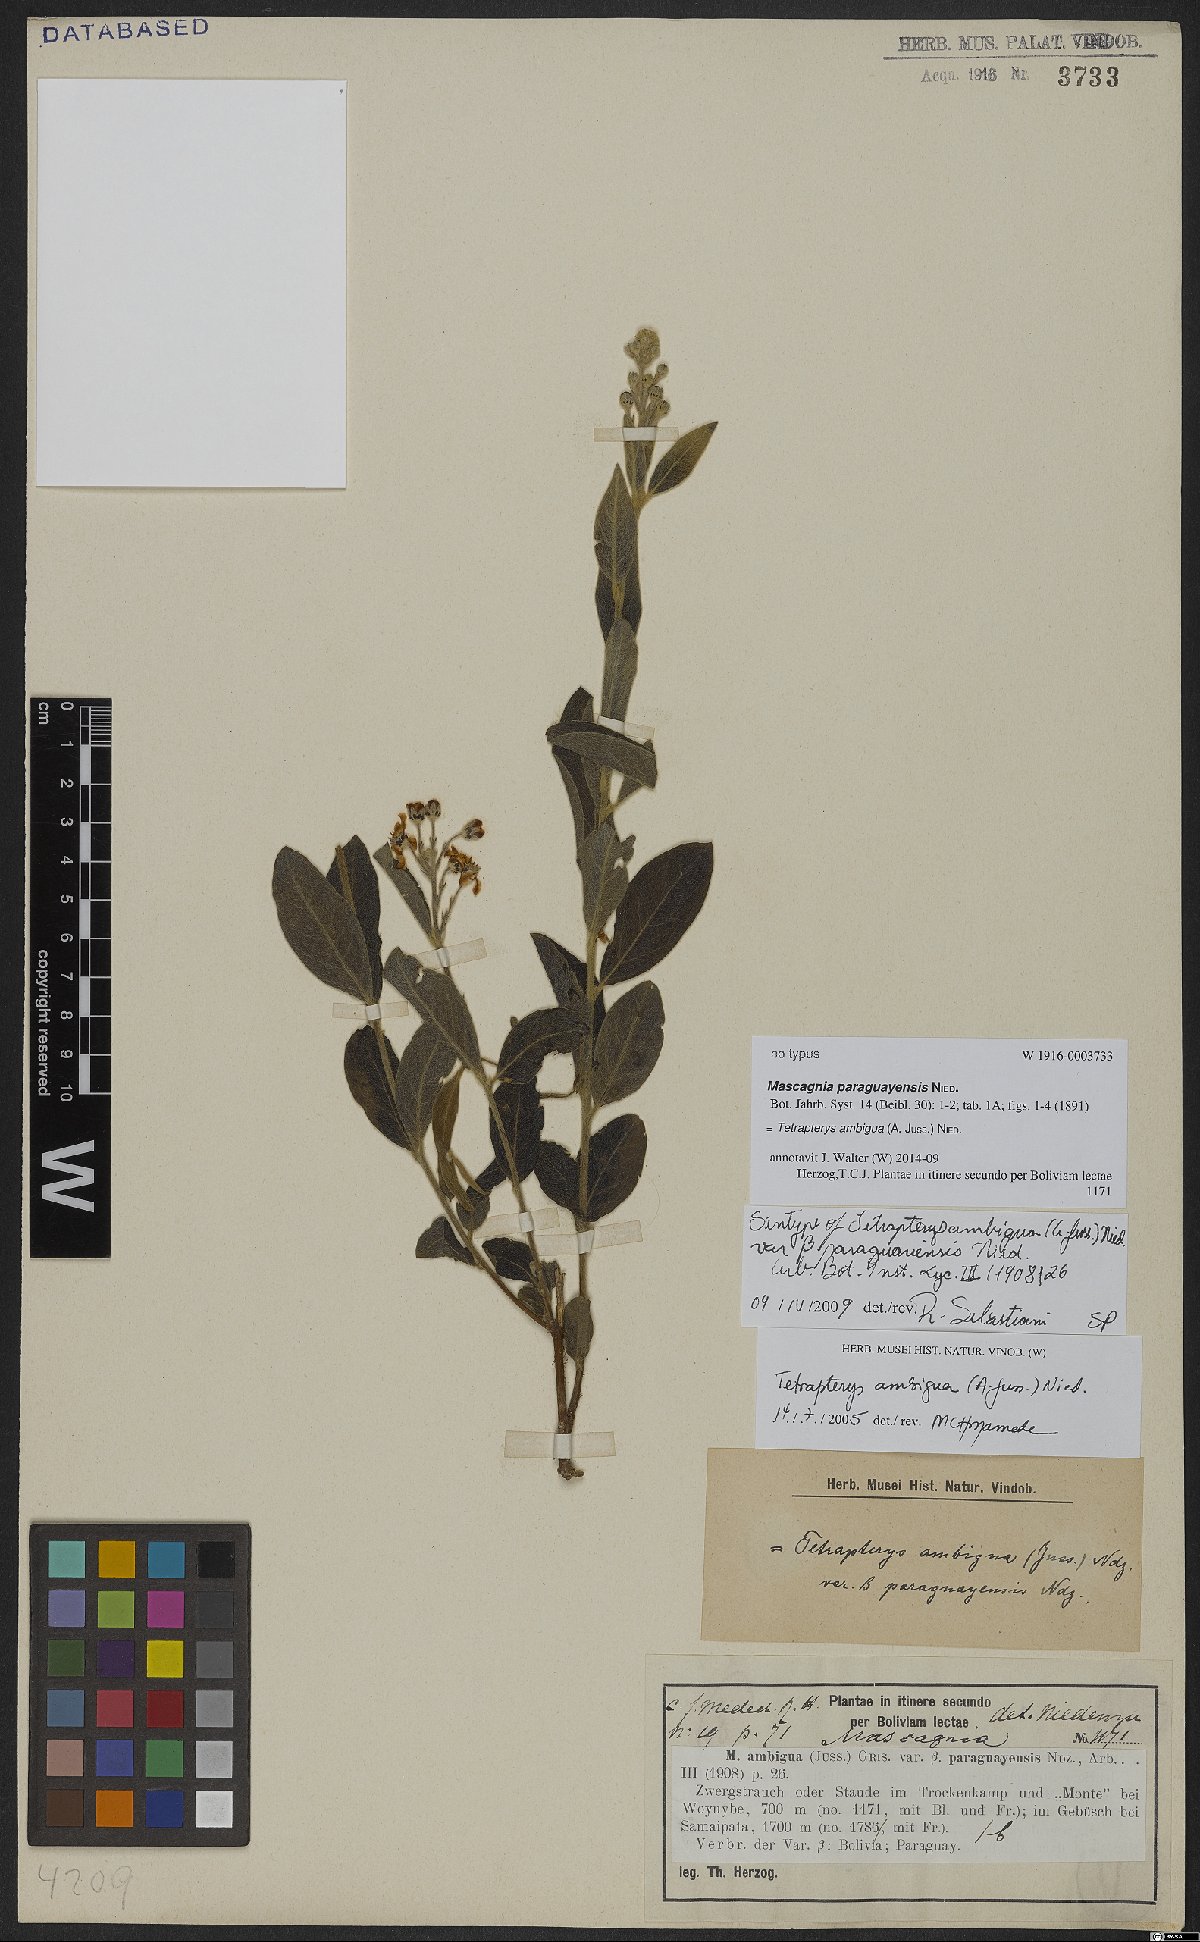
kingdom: Plantae
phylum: Tracheophyta
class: Magnoliopsida
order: Malpighiales
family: Malpighiaceae
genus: Glicophyllum
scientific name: Glicophyllum ambiguum
